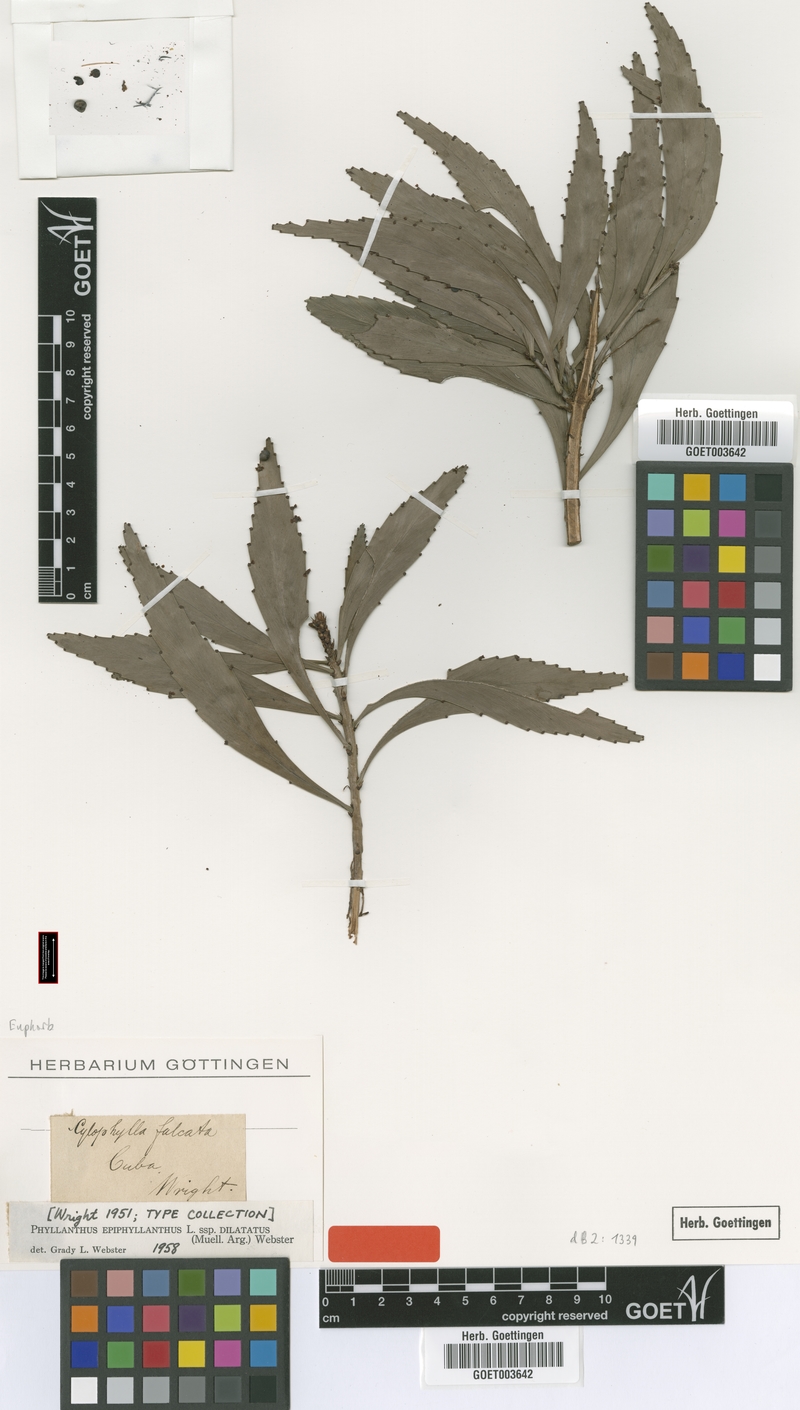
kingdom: Plantae
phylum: Tracheophyta
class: Magnoliopsida
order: Malpighiales
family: Phyllanthaceae
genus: Phyllanthus
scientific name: Phyllanthus epiphyllanthus
